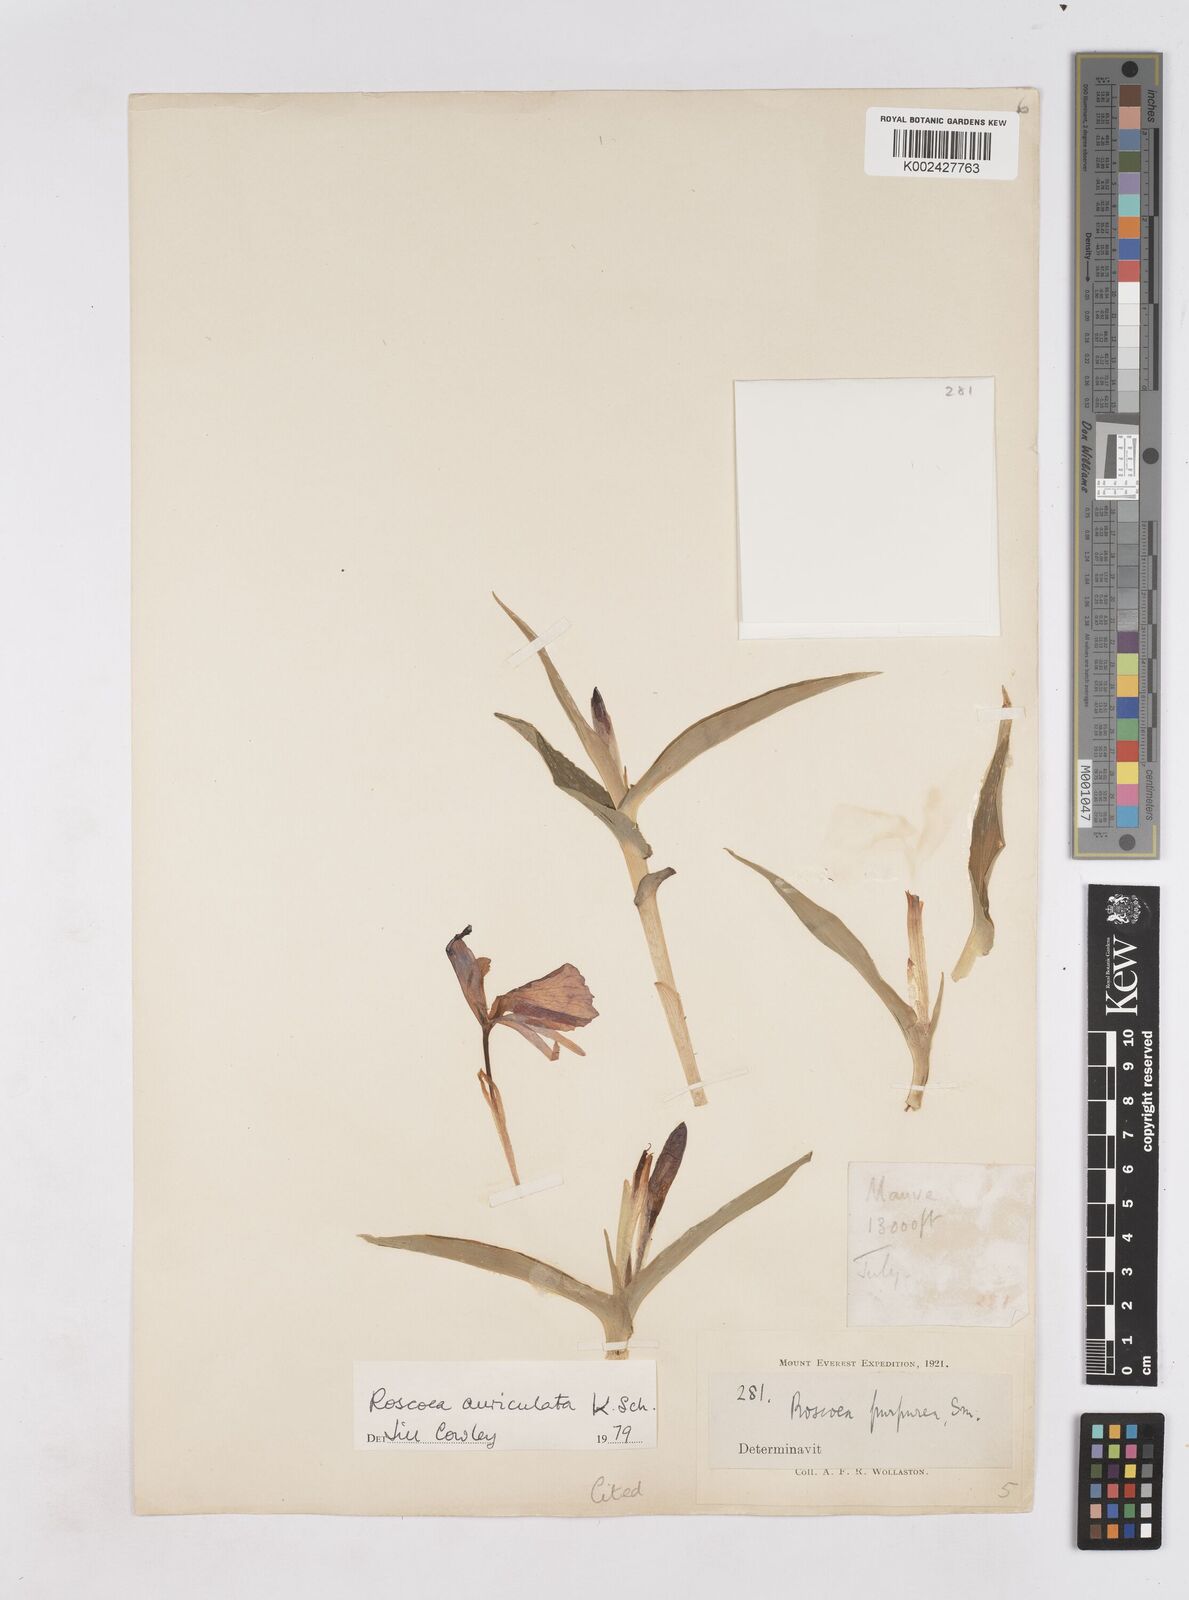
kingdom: Plantae
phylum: Tracheophyta
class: Liliopsida
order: Zingiberales
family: Zingiberaceae
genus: Roscoea
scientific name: Roscoea auriculata
